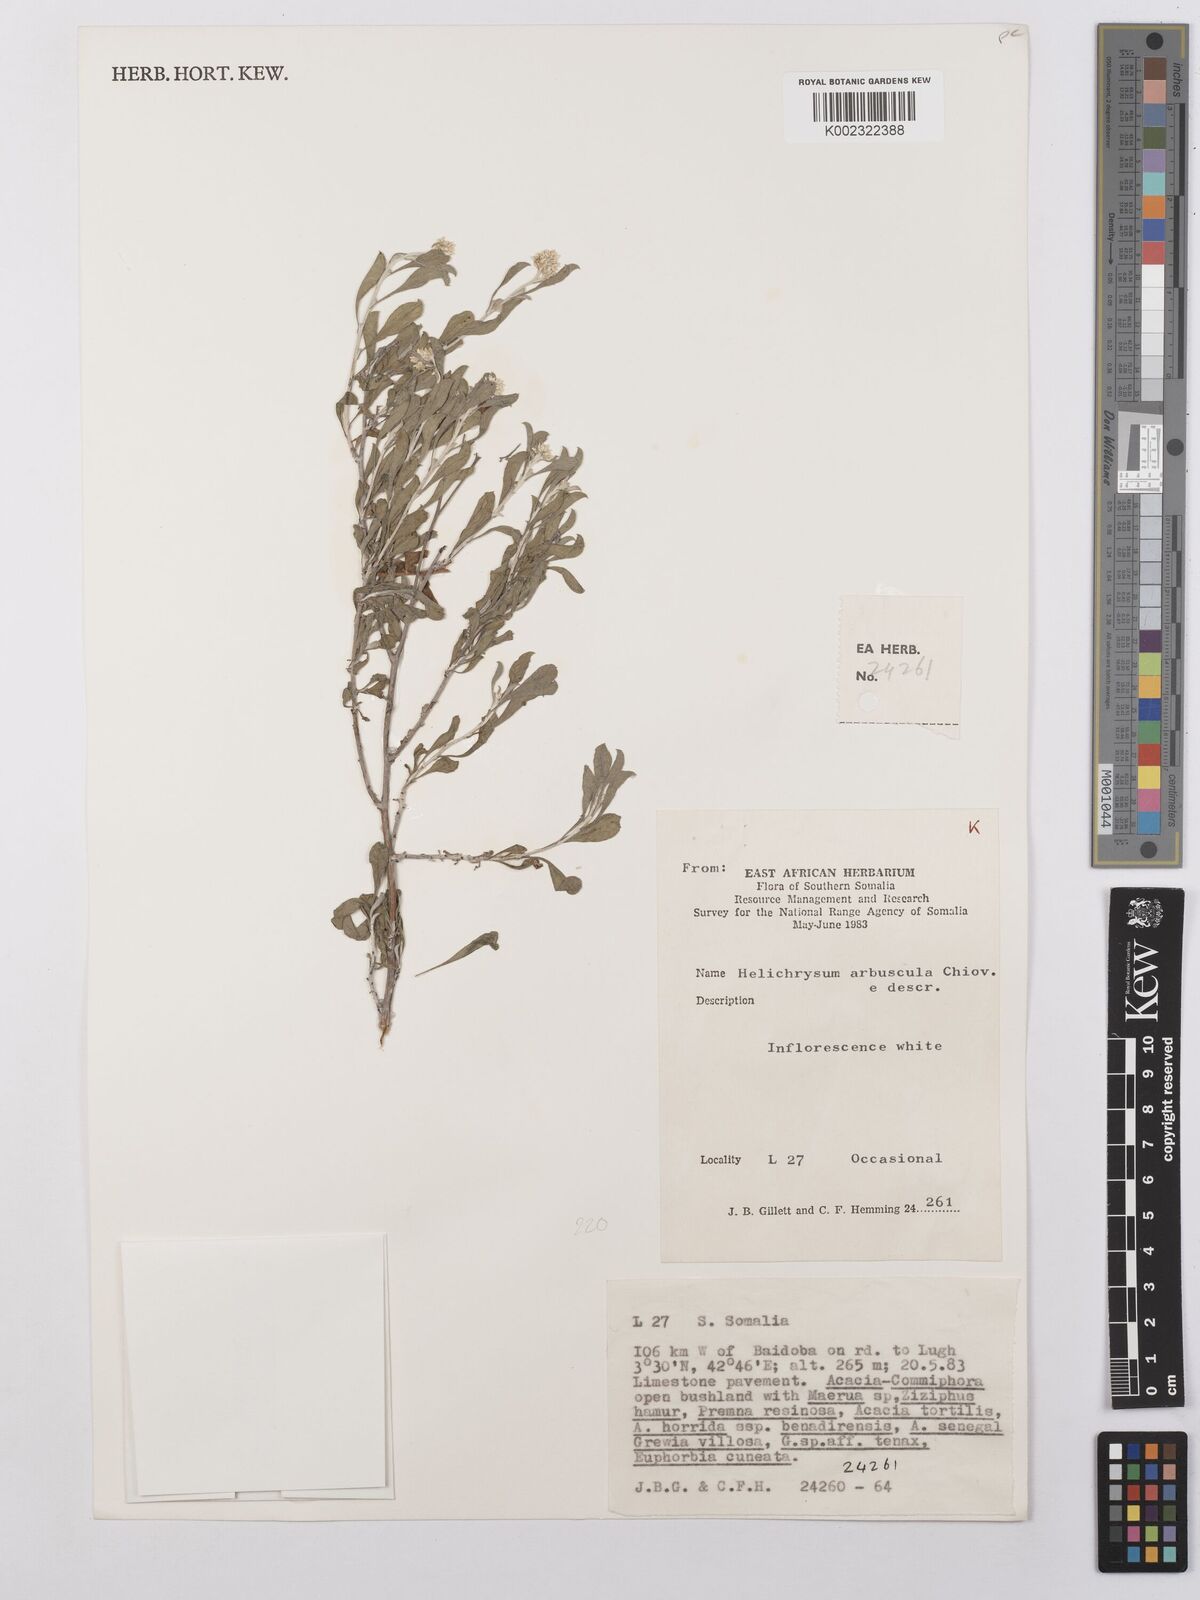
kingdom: Plantae
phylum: Tracheophyta
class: Magnoliopsida
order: Asterales
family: Asteraceae
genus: Helichrysum
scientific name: Helichrysum arbuscula
